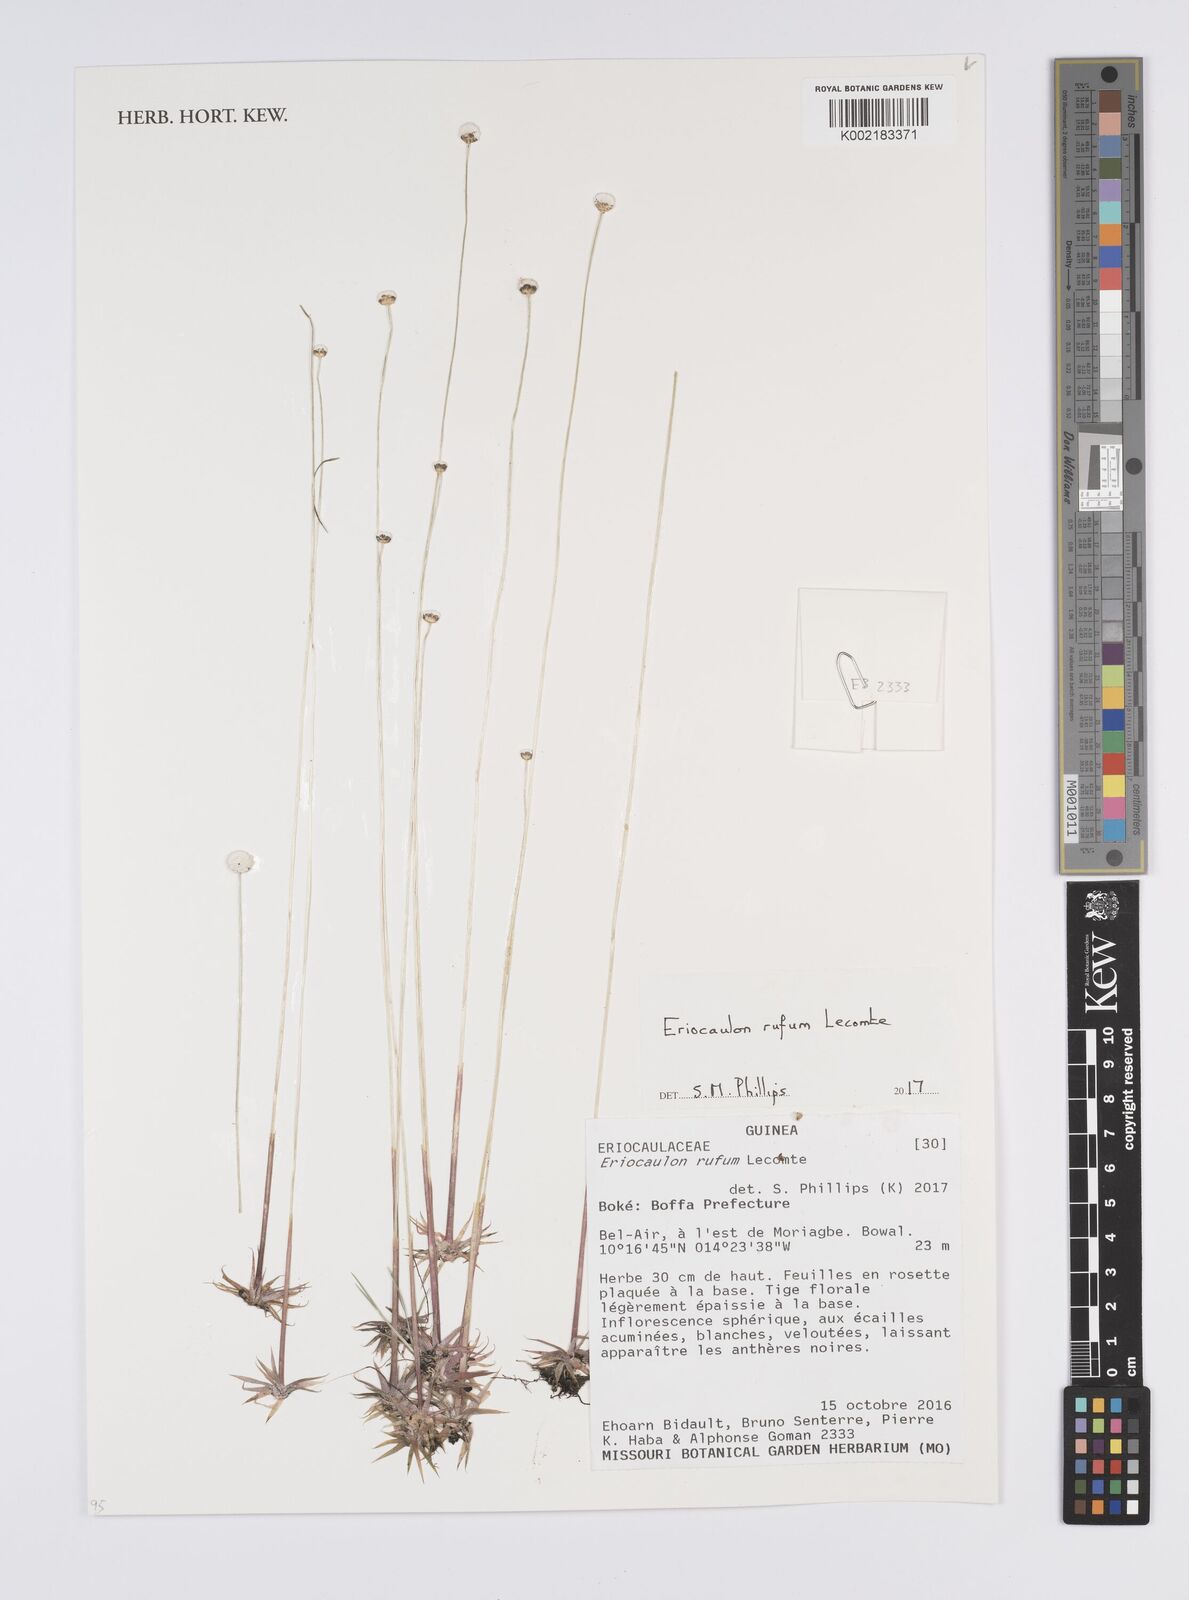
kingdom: Plantae
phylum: Tracheophyta
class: Liliopsida
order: Poales
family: Eriocaulaceae
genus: Eriocaulon
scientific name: Eriocaulon rufum
